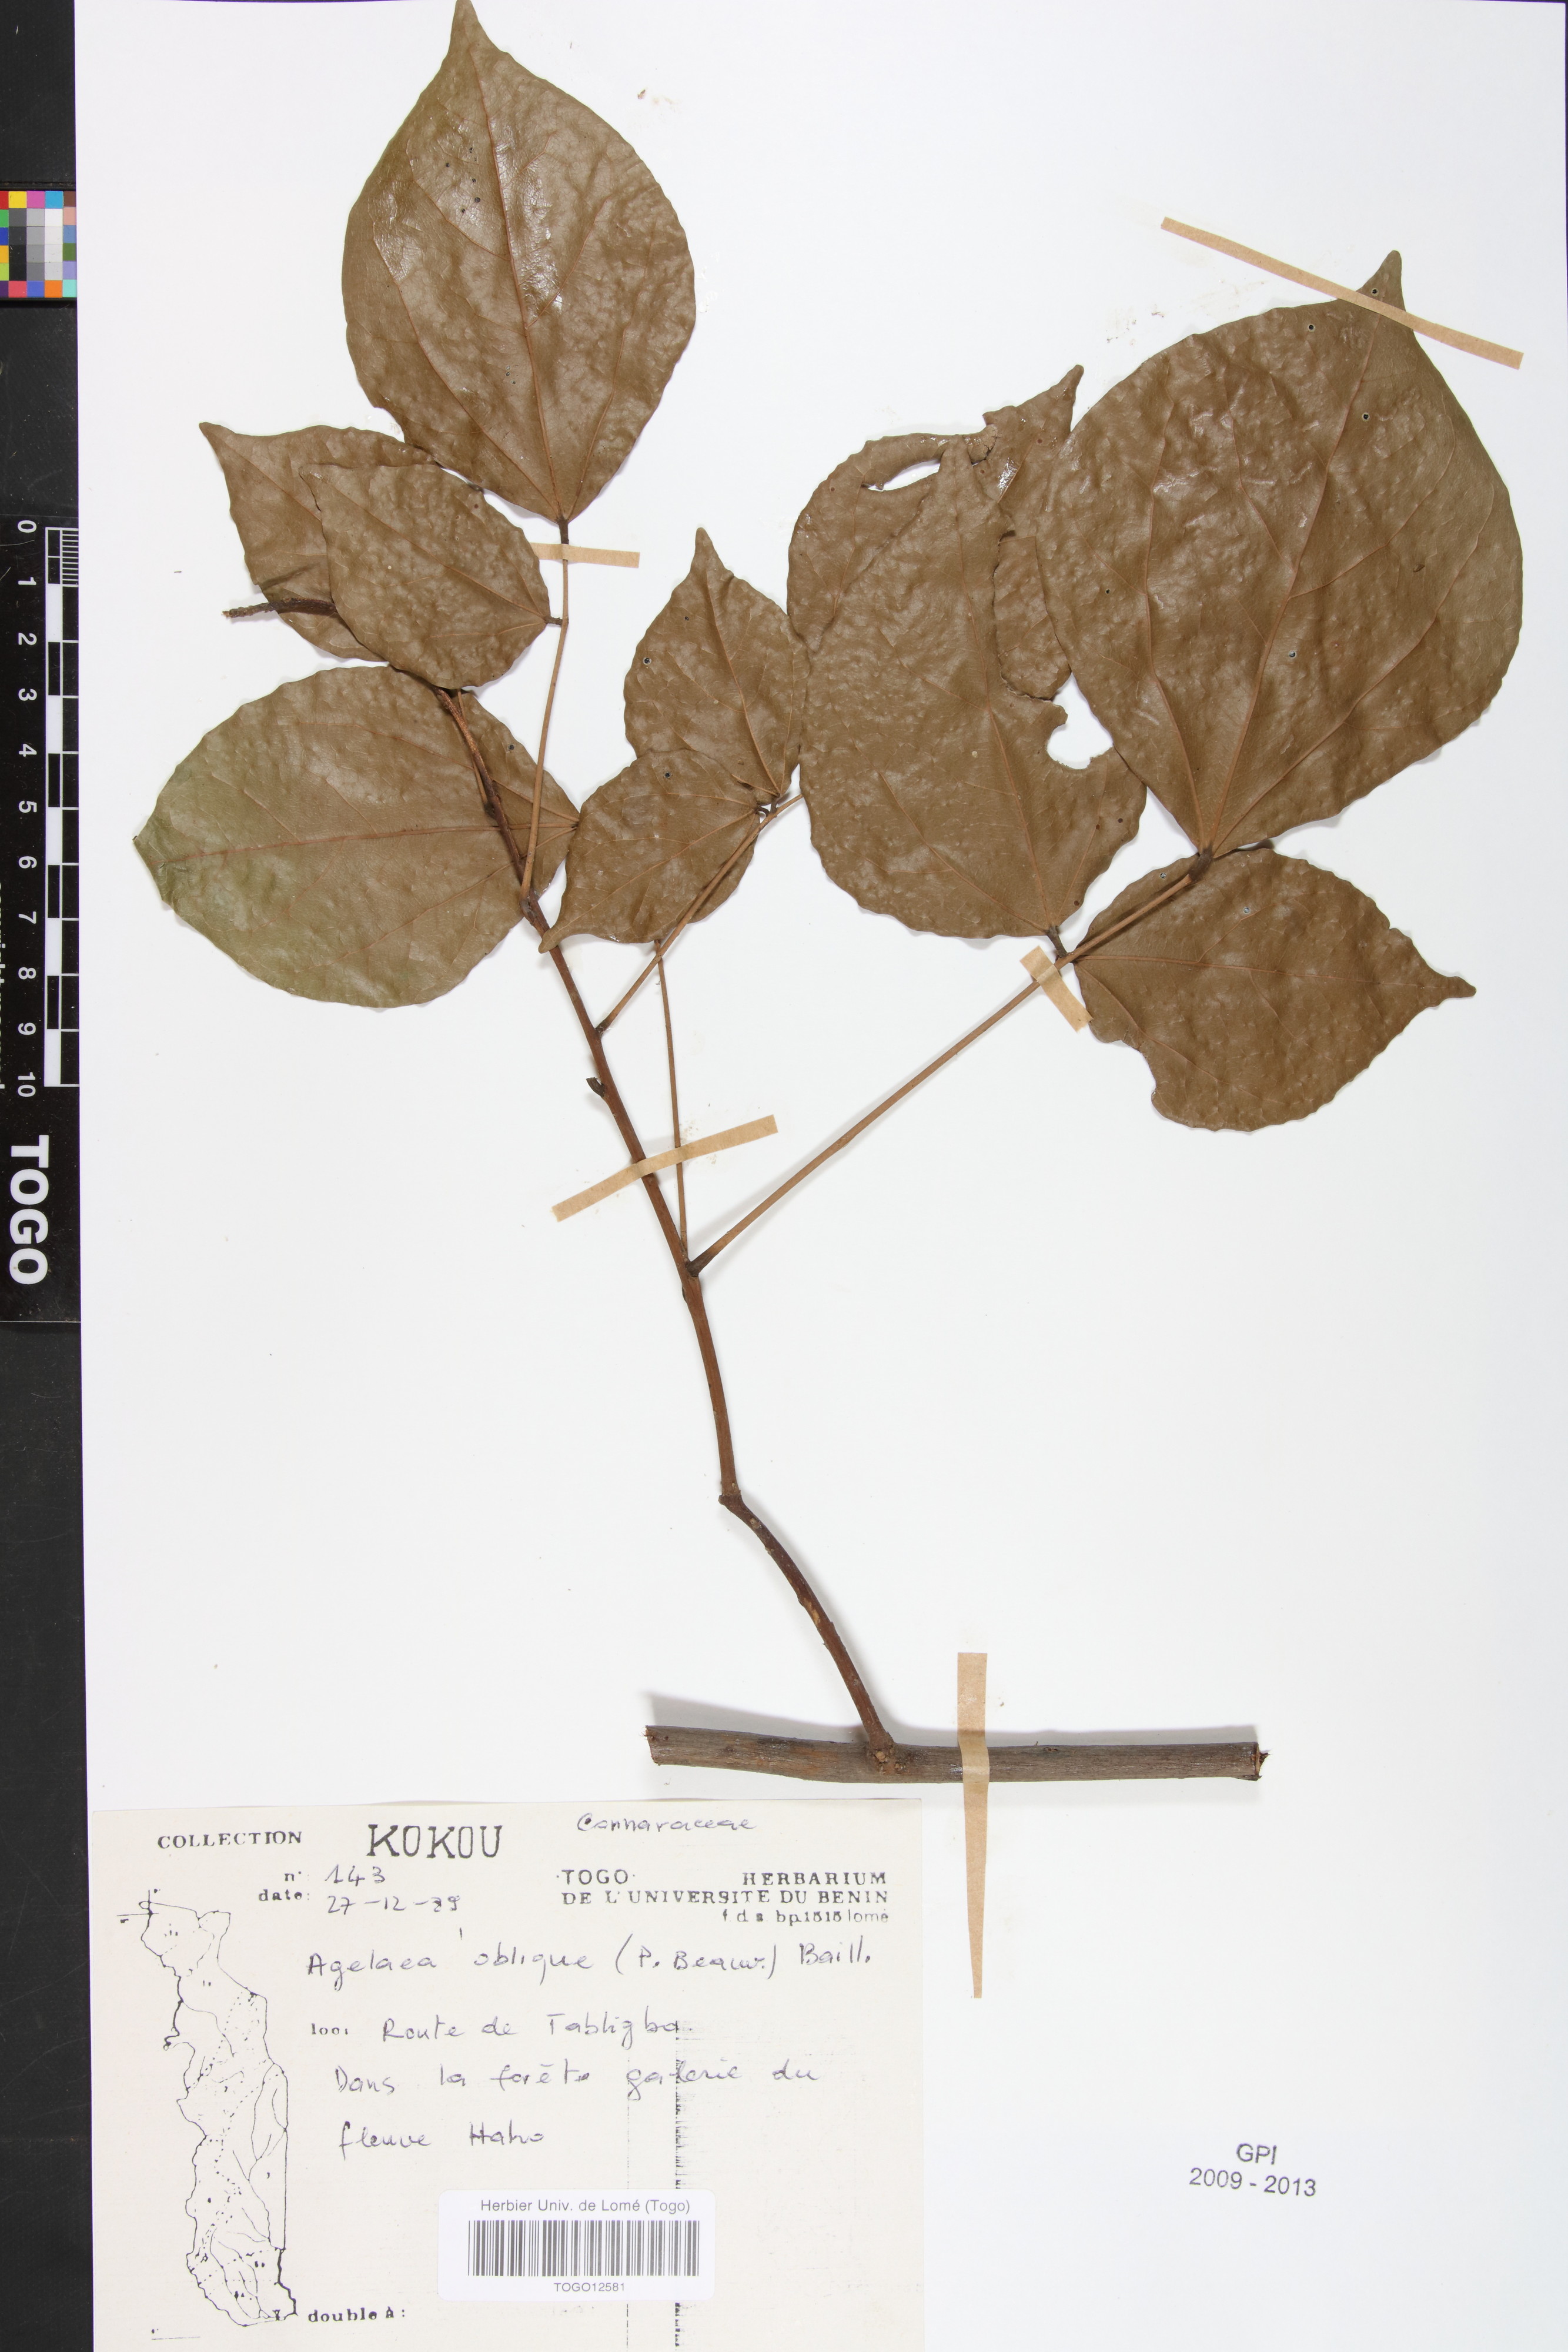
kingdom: Plantae
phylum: Tracheophyta
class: Magnoliopsida
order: Oxalidales
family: Connaraceae
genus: Agelaea
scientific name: Agelaea pentagyna
